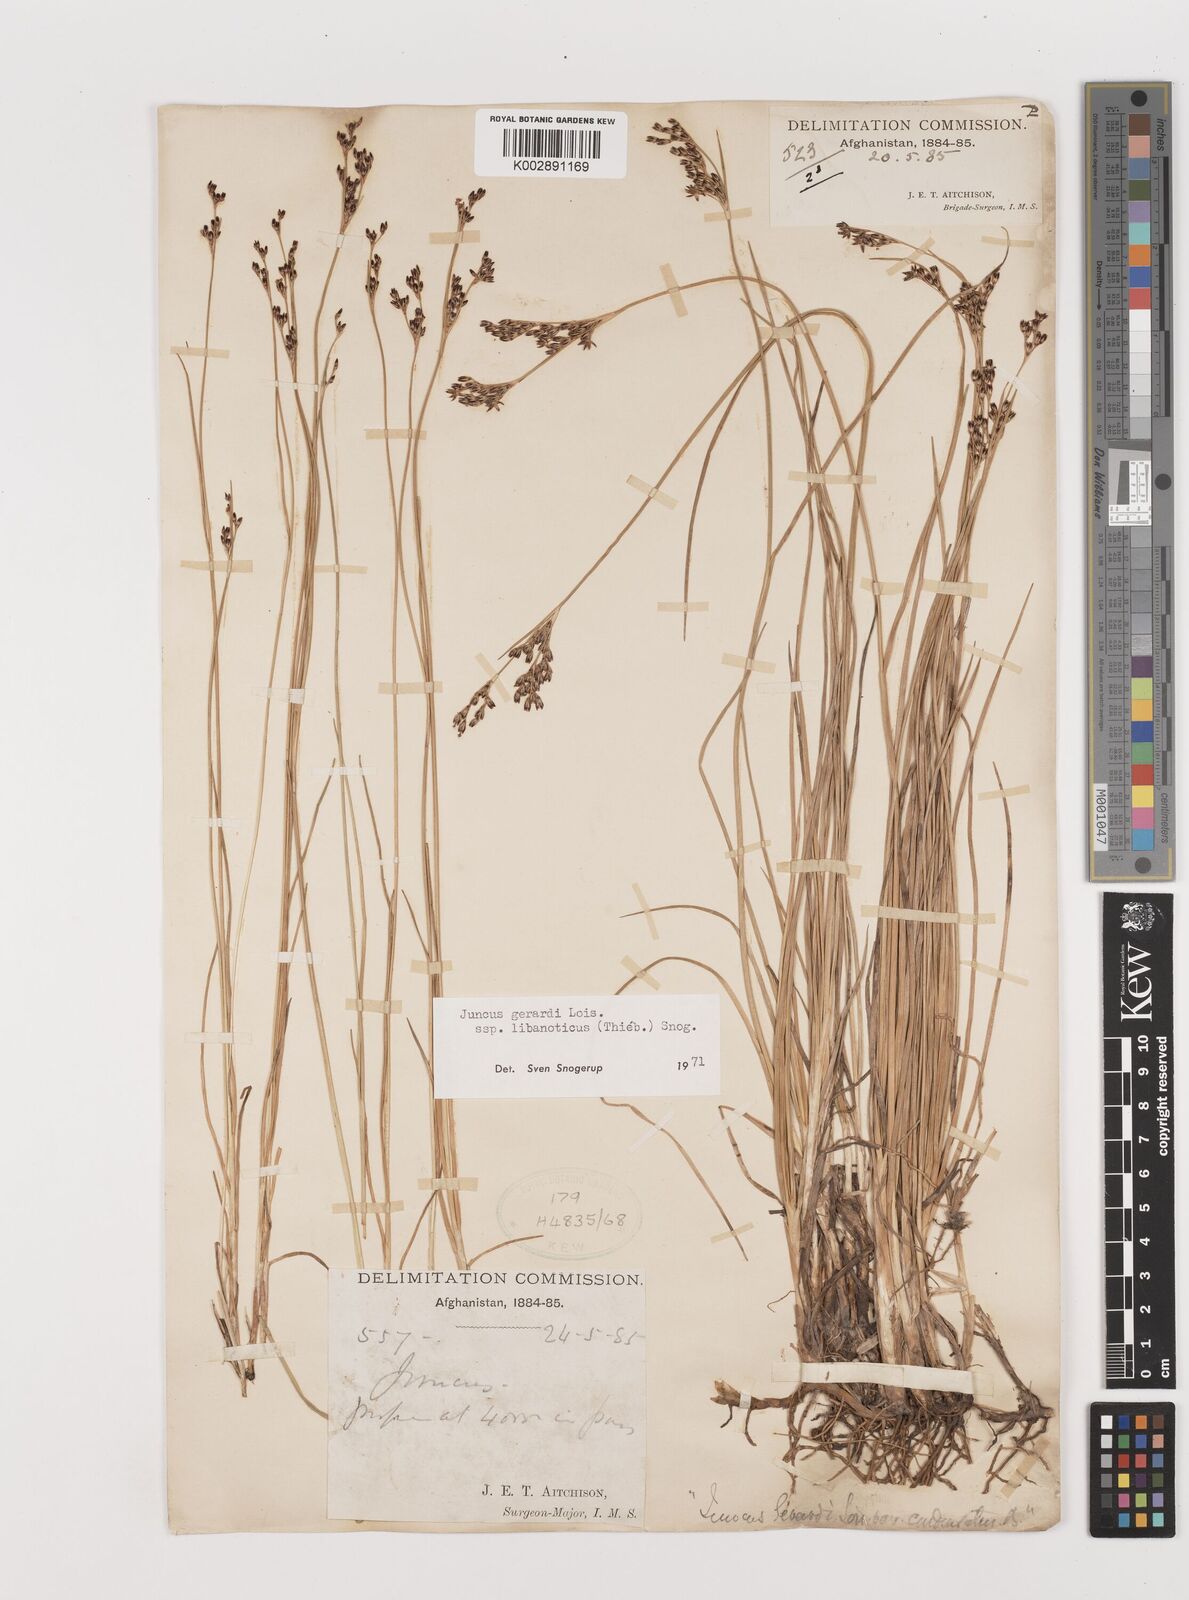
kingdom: Plantae
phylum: Tracheophyta
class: Liliopsida
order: Poales
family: Juncaceae
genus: Juncus
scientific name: Juncus persicus
